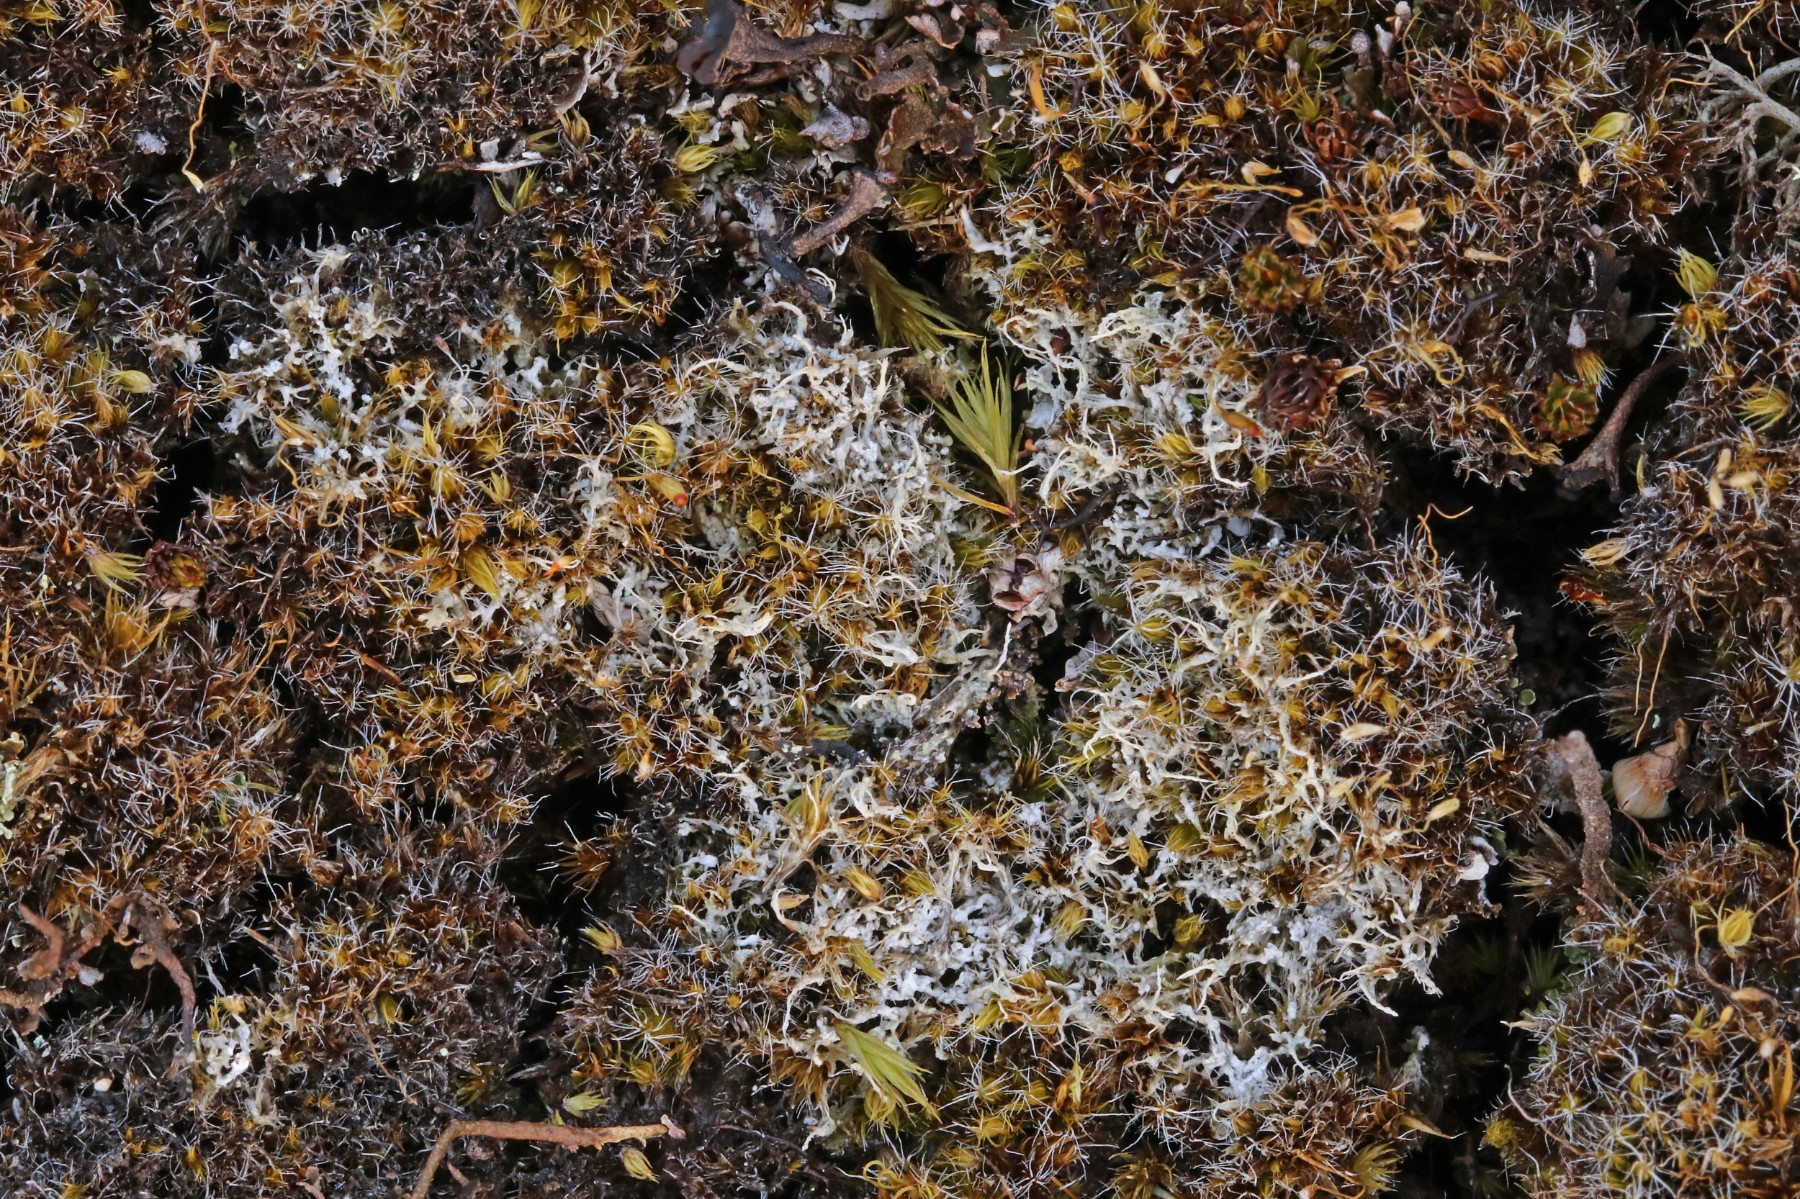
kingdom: Fungi
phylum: Ascomycota
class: Lecanoromycetes
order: Pertusariales
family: Ochrolechiaceae
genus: Ochrolechia
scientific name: Ochrolechia frigida
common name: fjeld-blegskivelav
